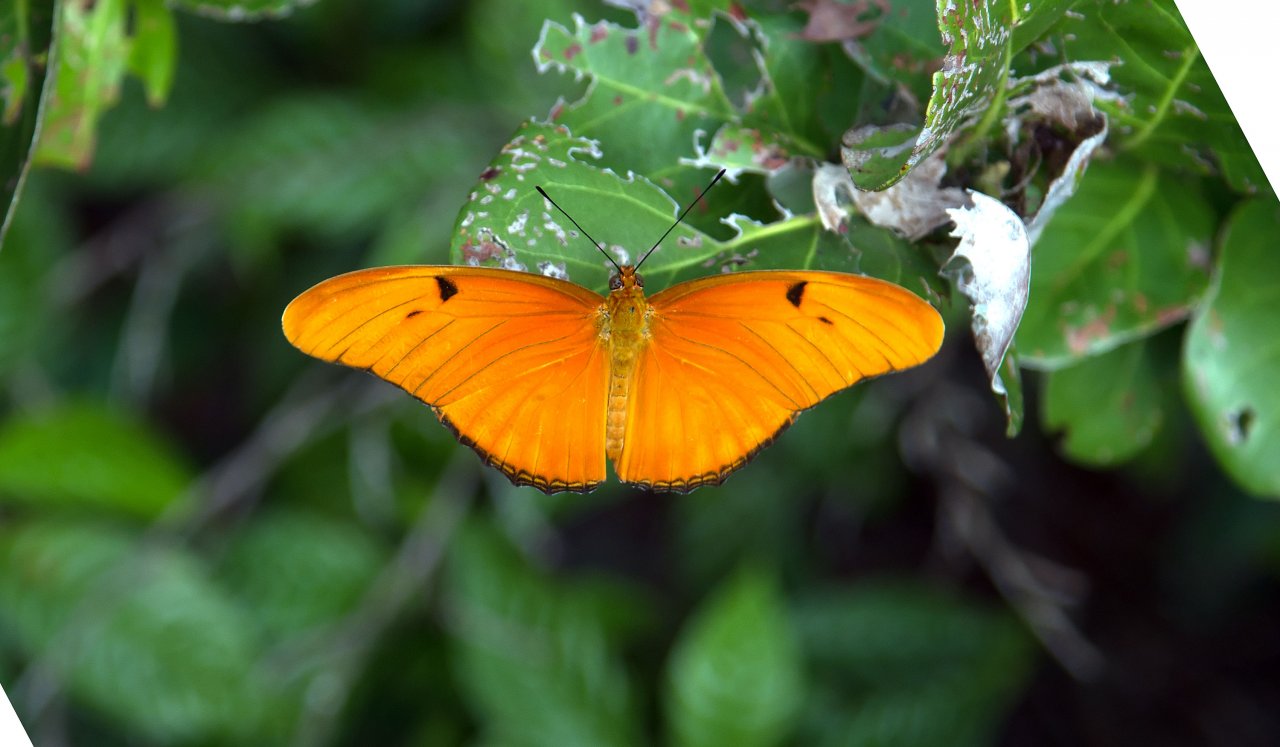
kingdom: Animalia
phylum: Arthropoda
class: Insecta
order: Lepidoptera
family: Nymphalidae
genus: Dryas
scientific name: Dryas iulia
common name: Julia
